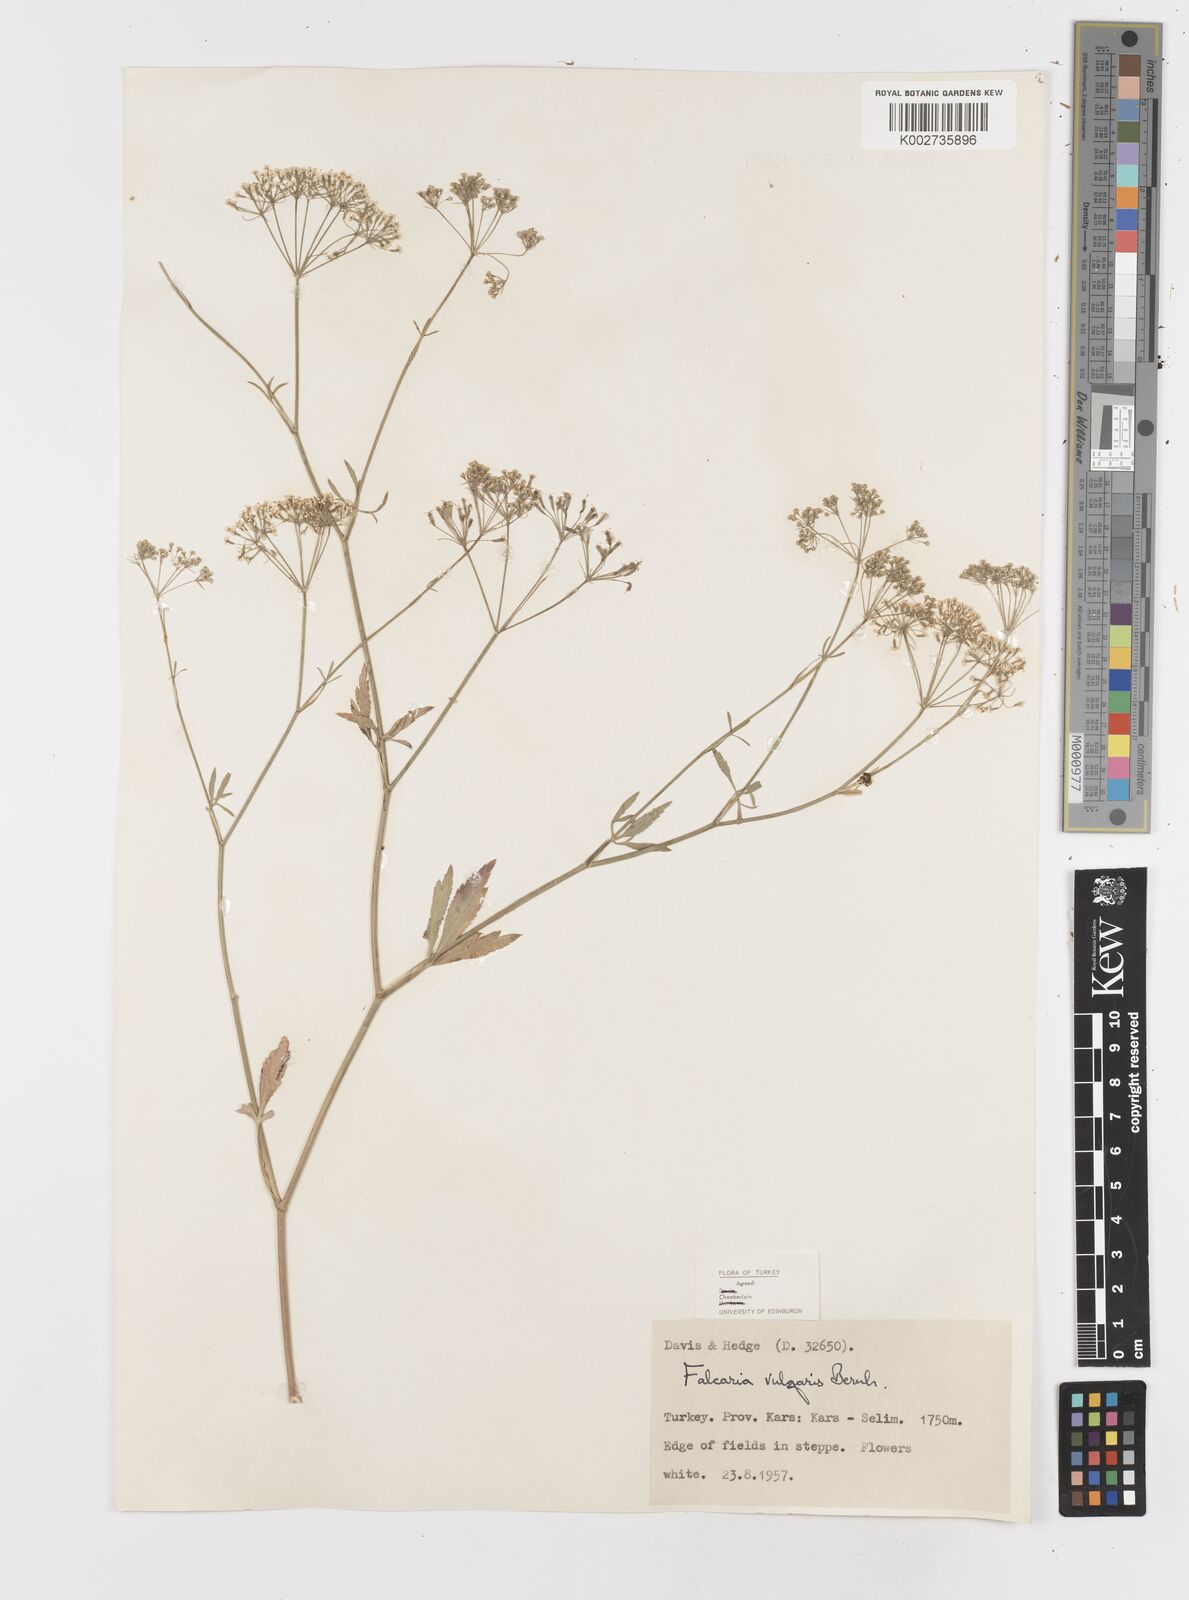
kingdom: Plantae
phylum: Tracheophyta
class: Magnoliopsida
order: Apiales
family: Apiaceae
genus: Falcaria
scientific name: Falcaria vulgaris
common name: Longleaf
